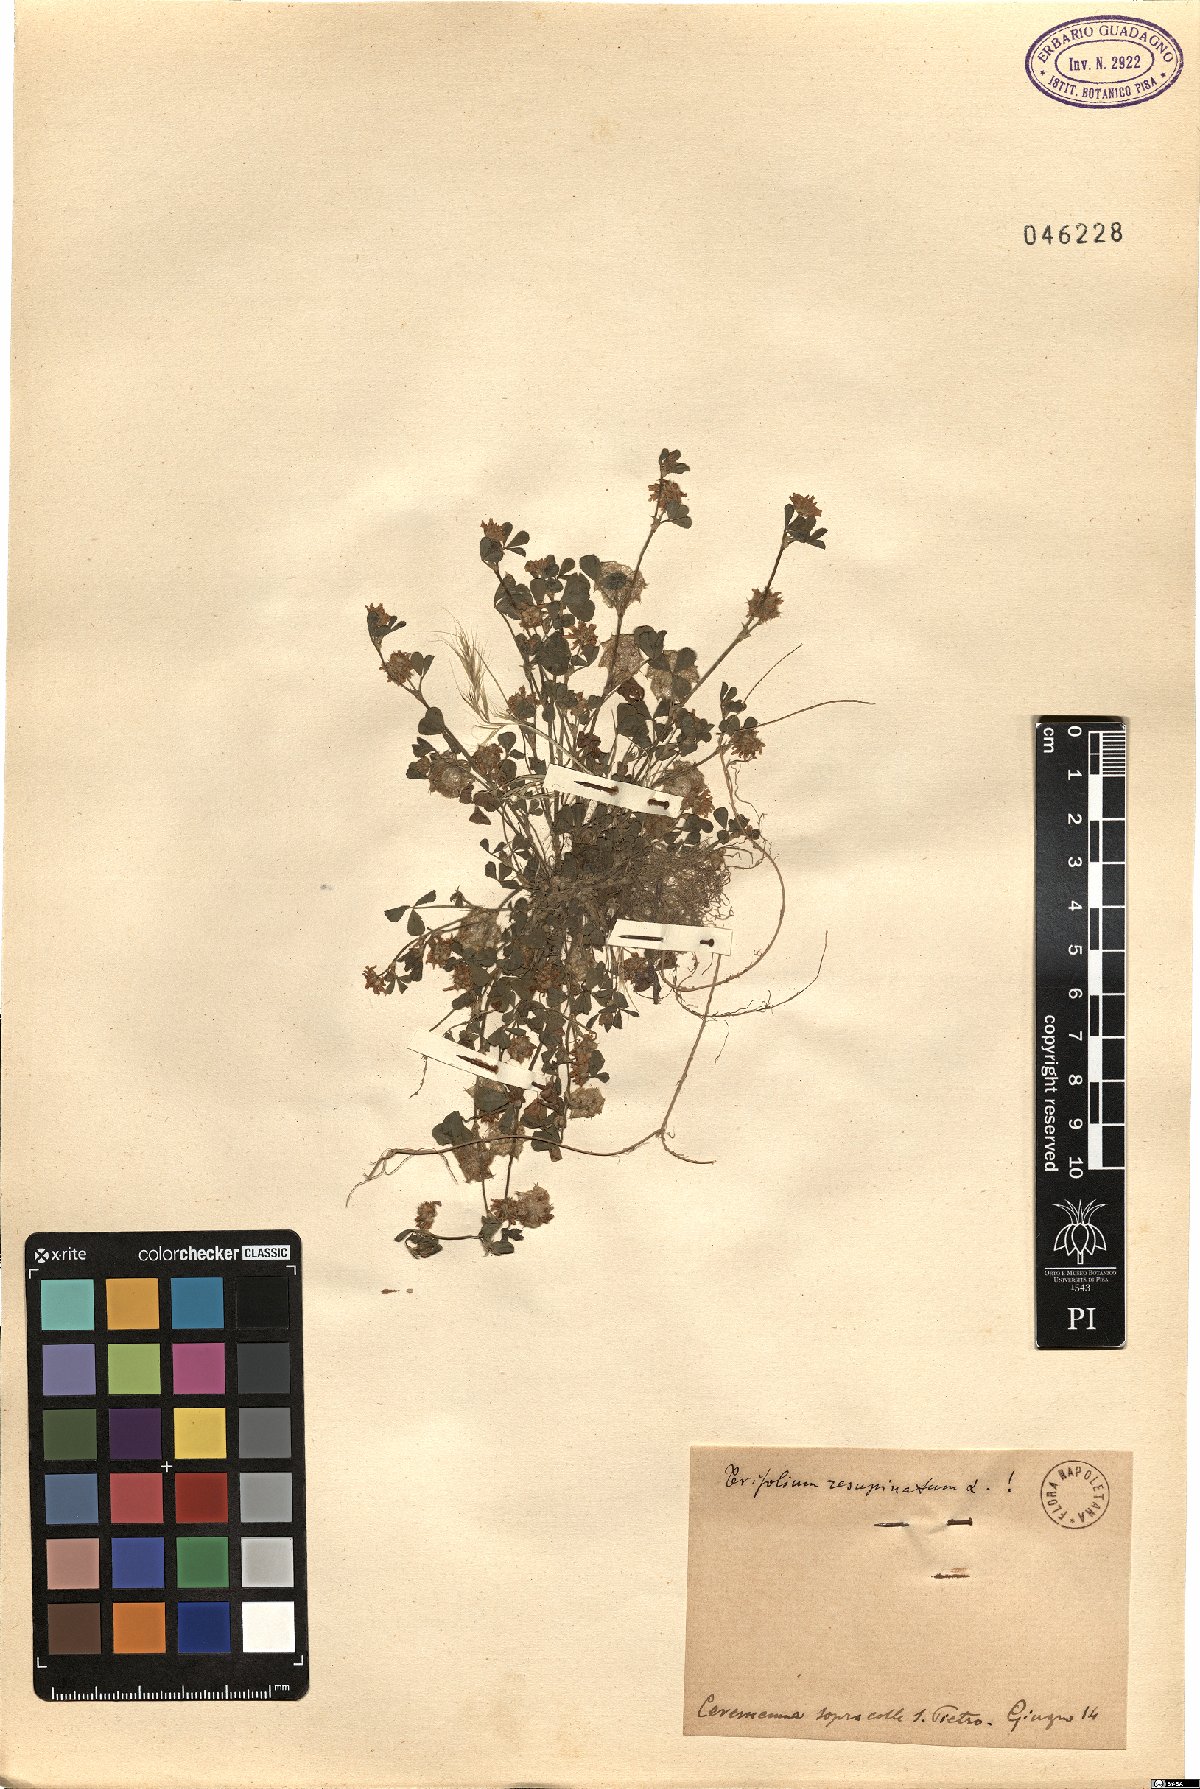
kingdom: Plantae
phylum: Tracheophyta
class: Magnoliopsida
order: Fabales
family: Fabaceae
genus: Trifolium
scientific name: Trifolium resupinatum
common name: Reversed clover
